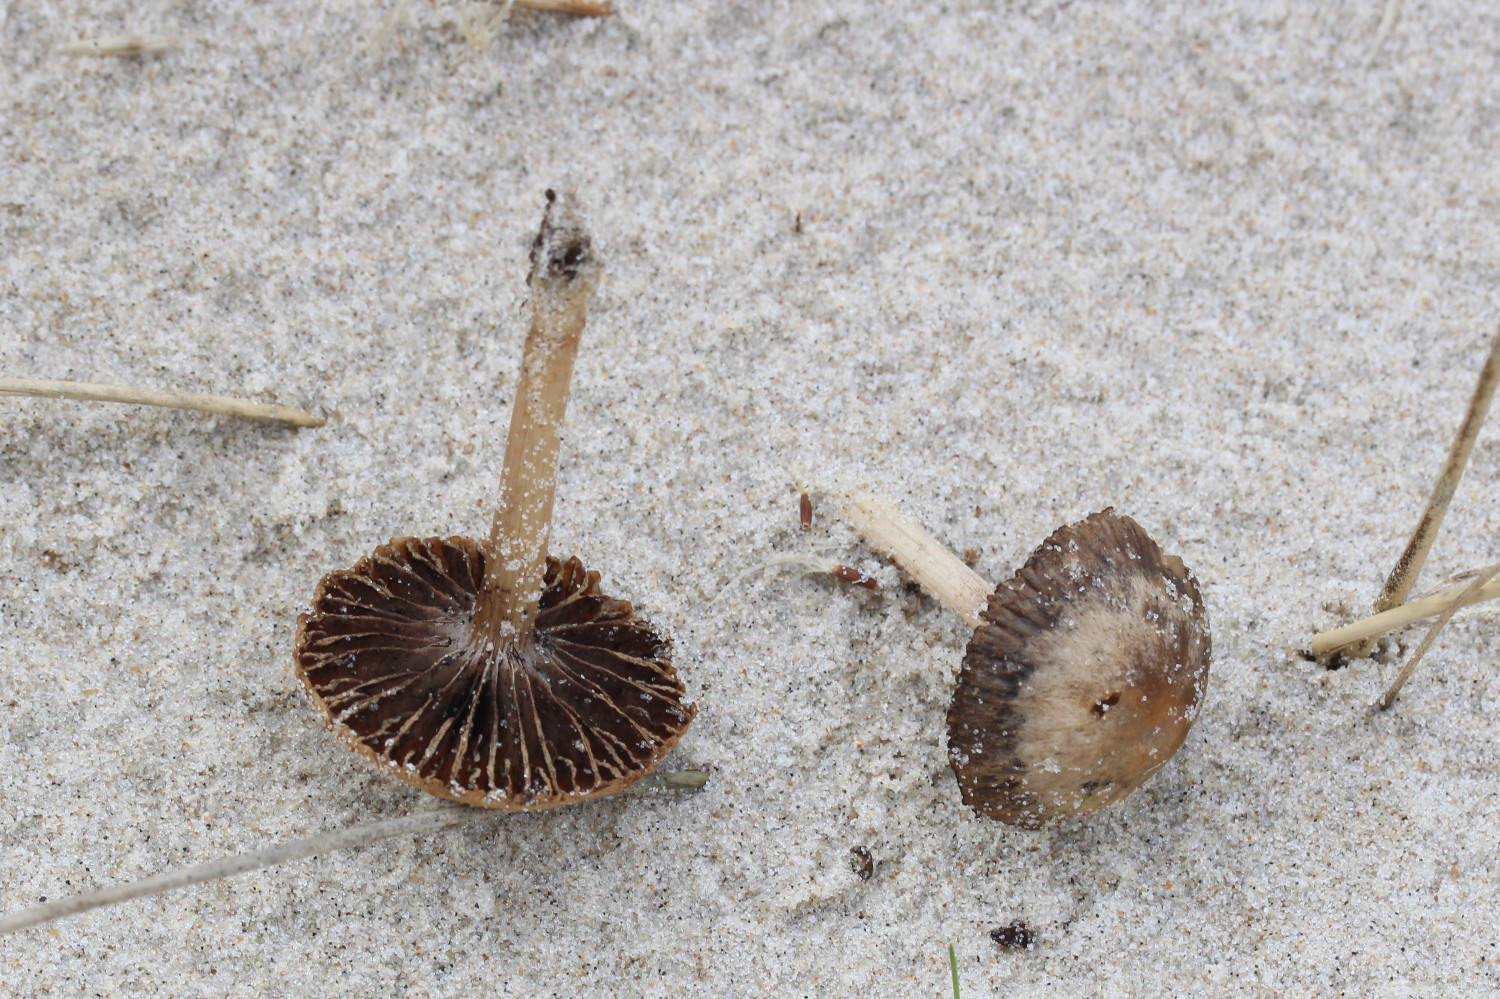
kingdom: Fungi
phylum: Basidiomycota
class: Agaricomycetes
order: Agaricales
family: Psathyrellaceae
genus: Psathyrella
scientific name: Psathyrella ammophila
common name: klit-mørkhat
